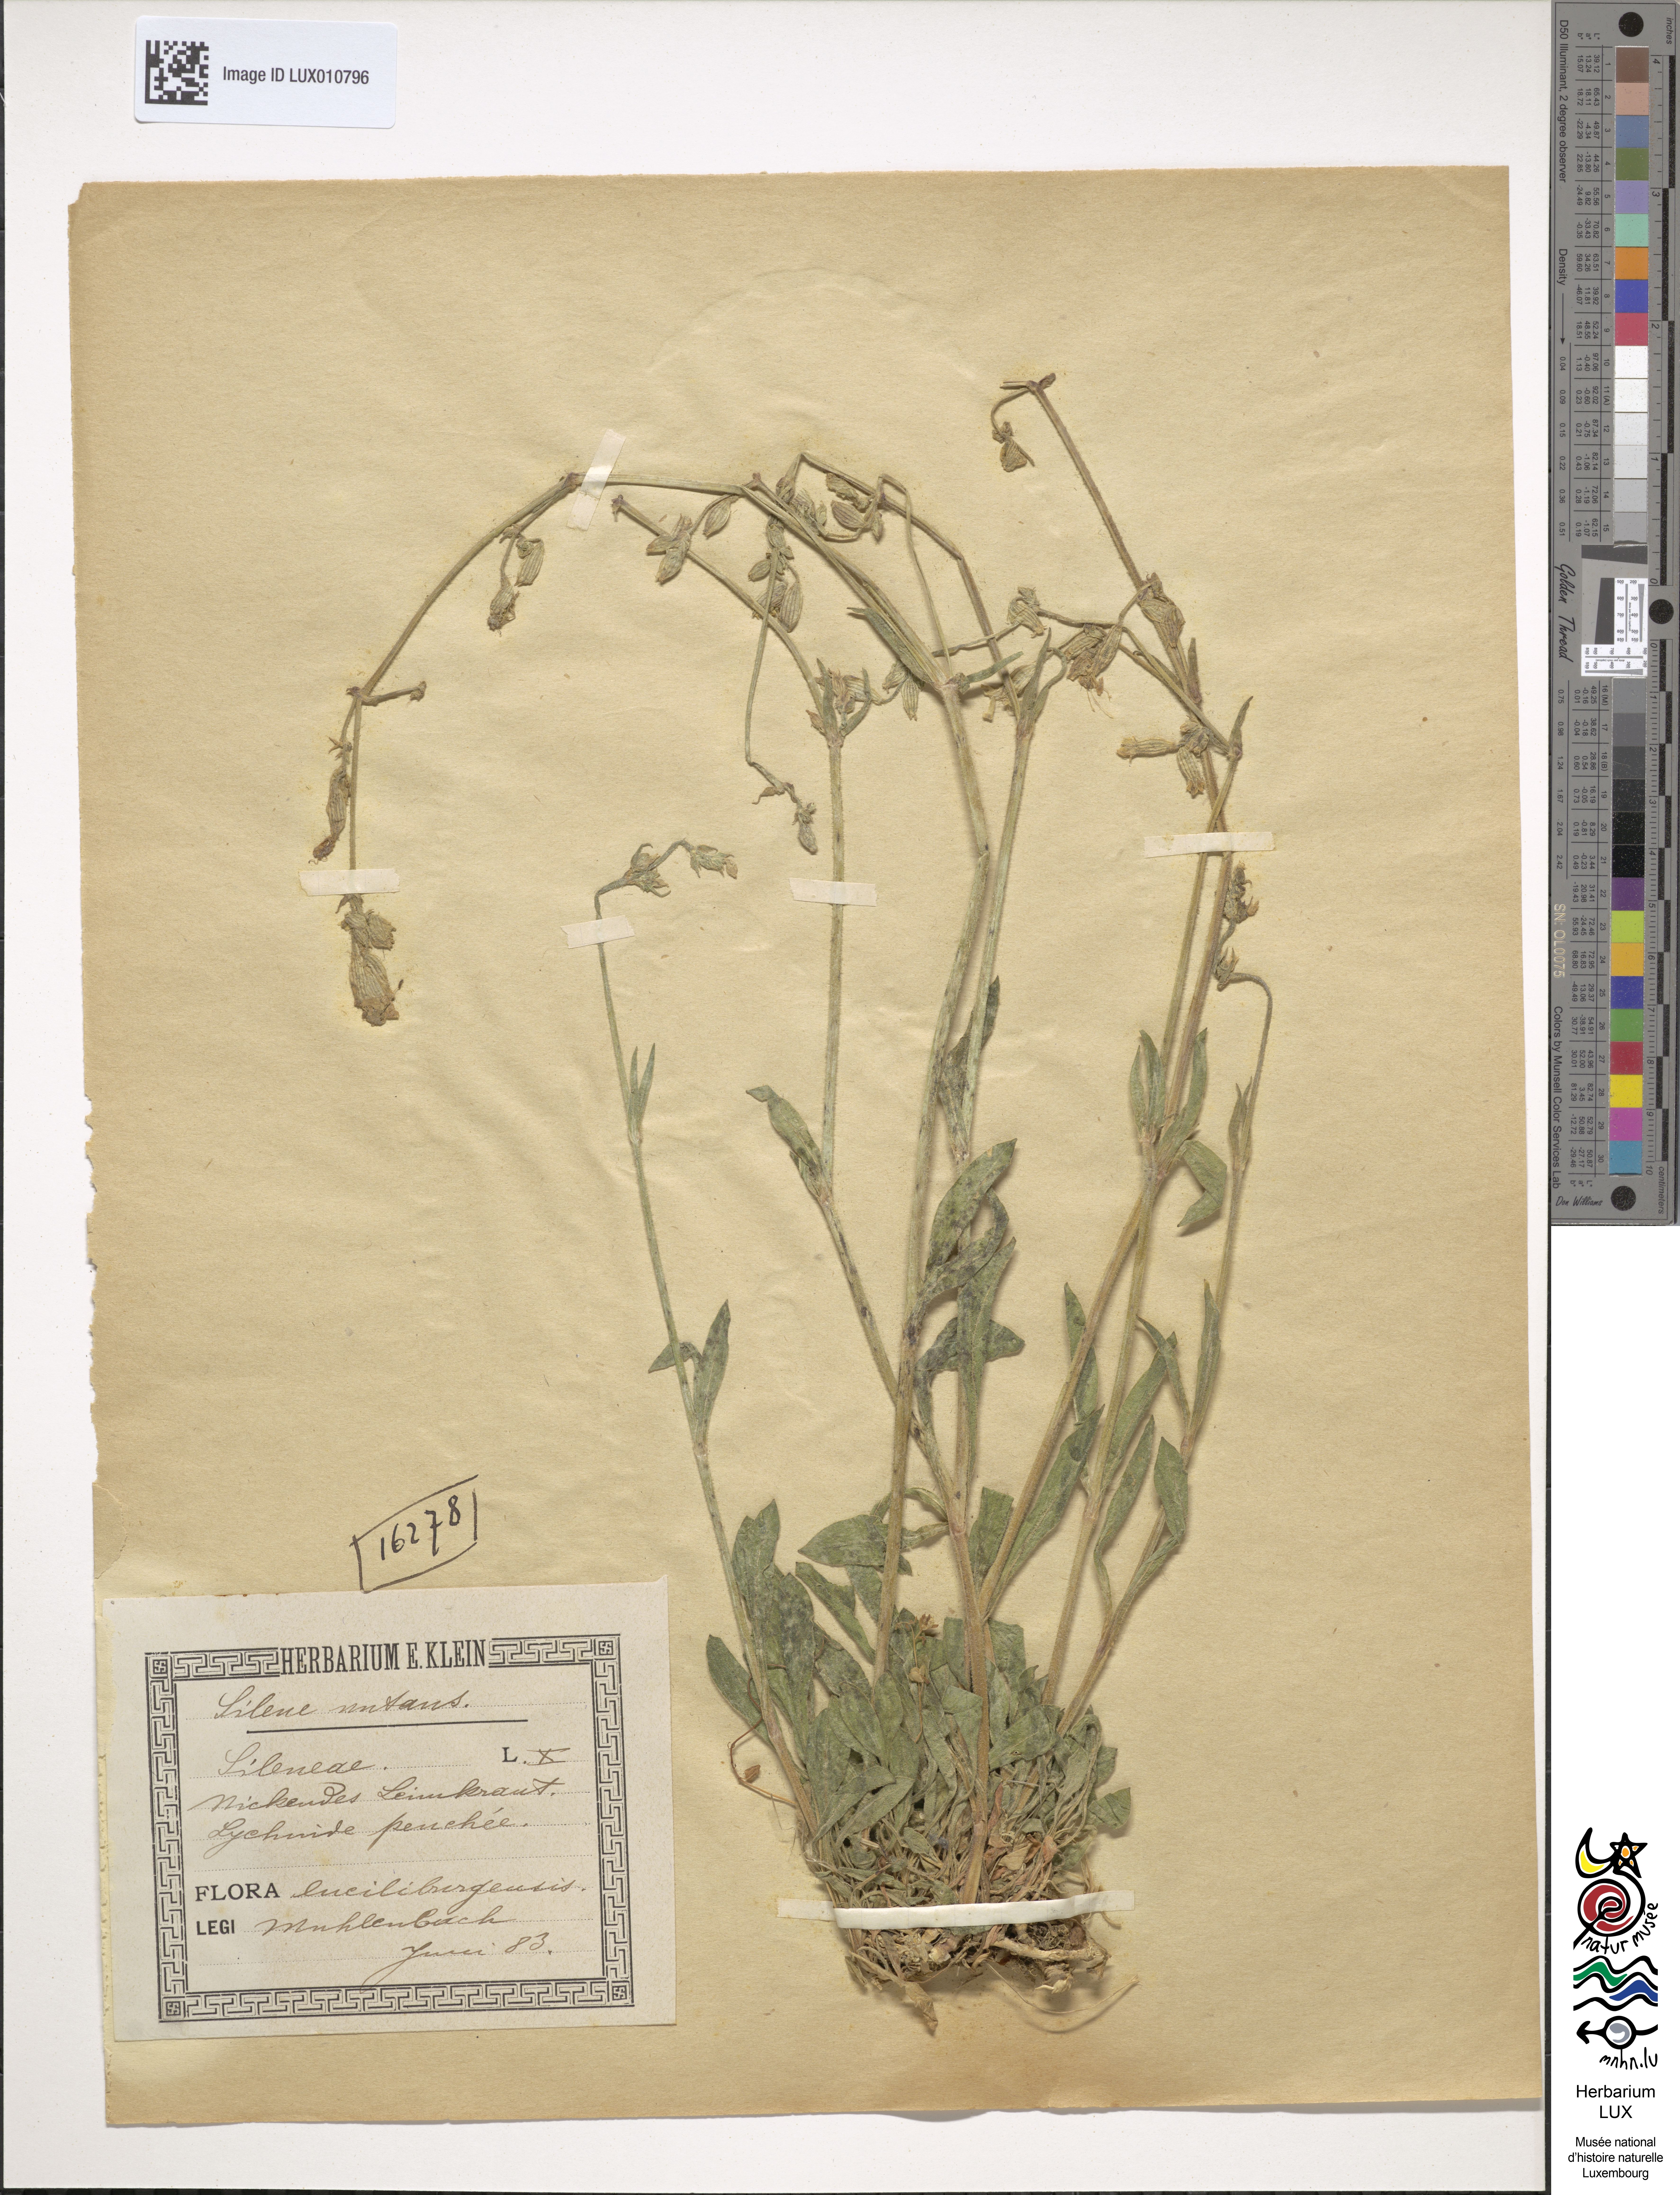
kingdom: Plantae
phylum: Tracheophyta
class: Magnoliopsida
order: Caryophyllales
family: Caryophyllaceae
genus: Silene
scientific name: Silene nutans
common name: Nottingham catchfly
